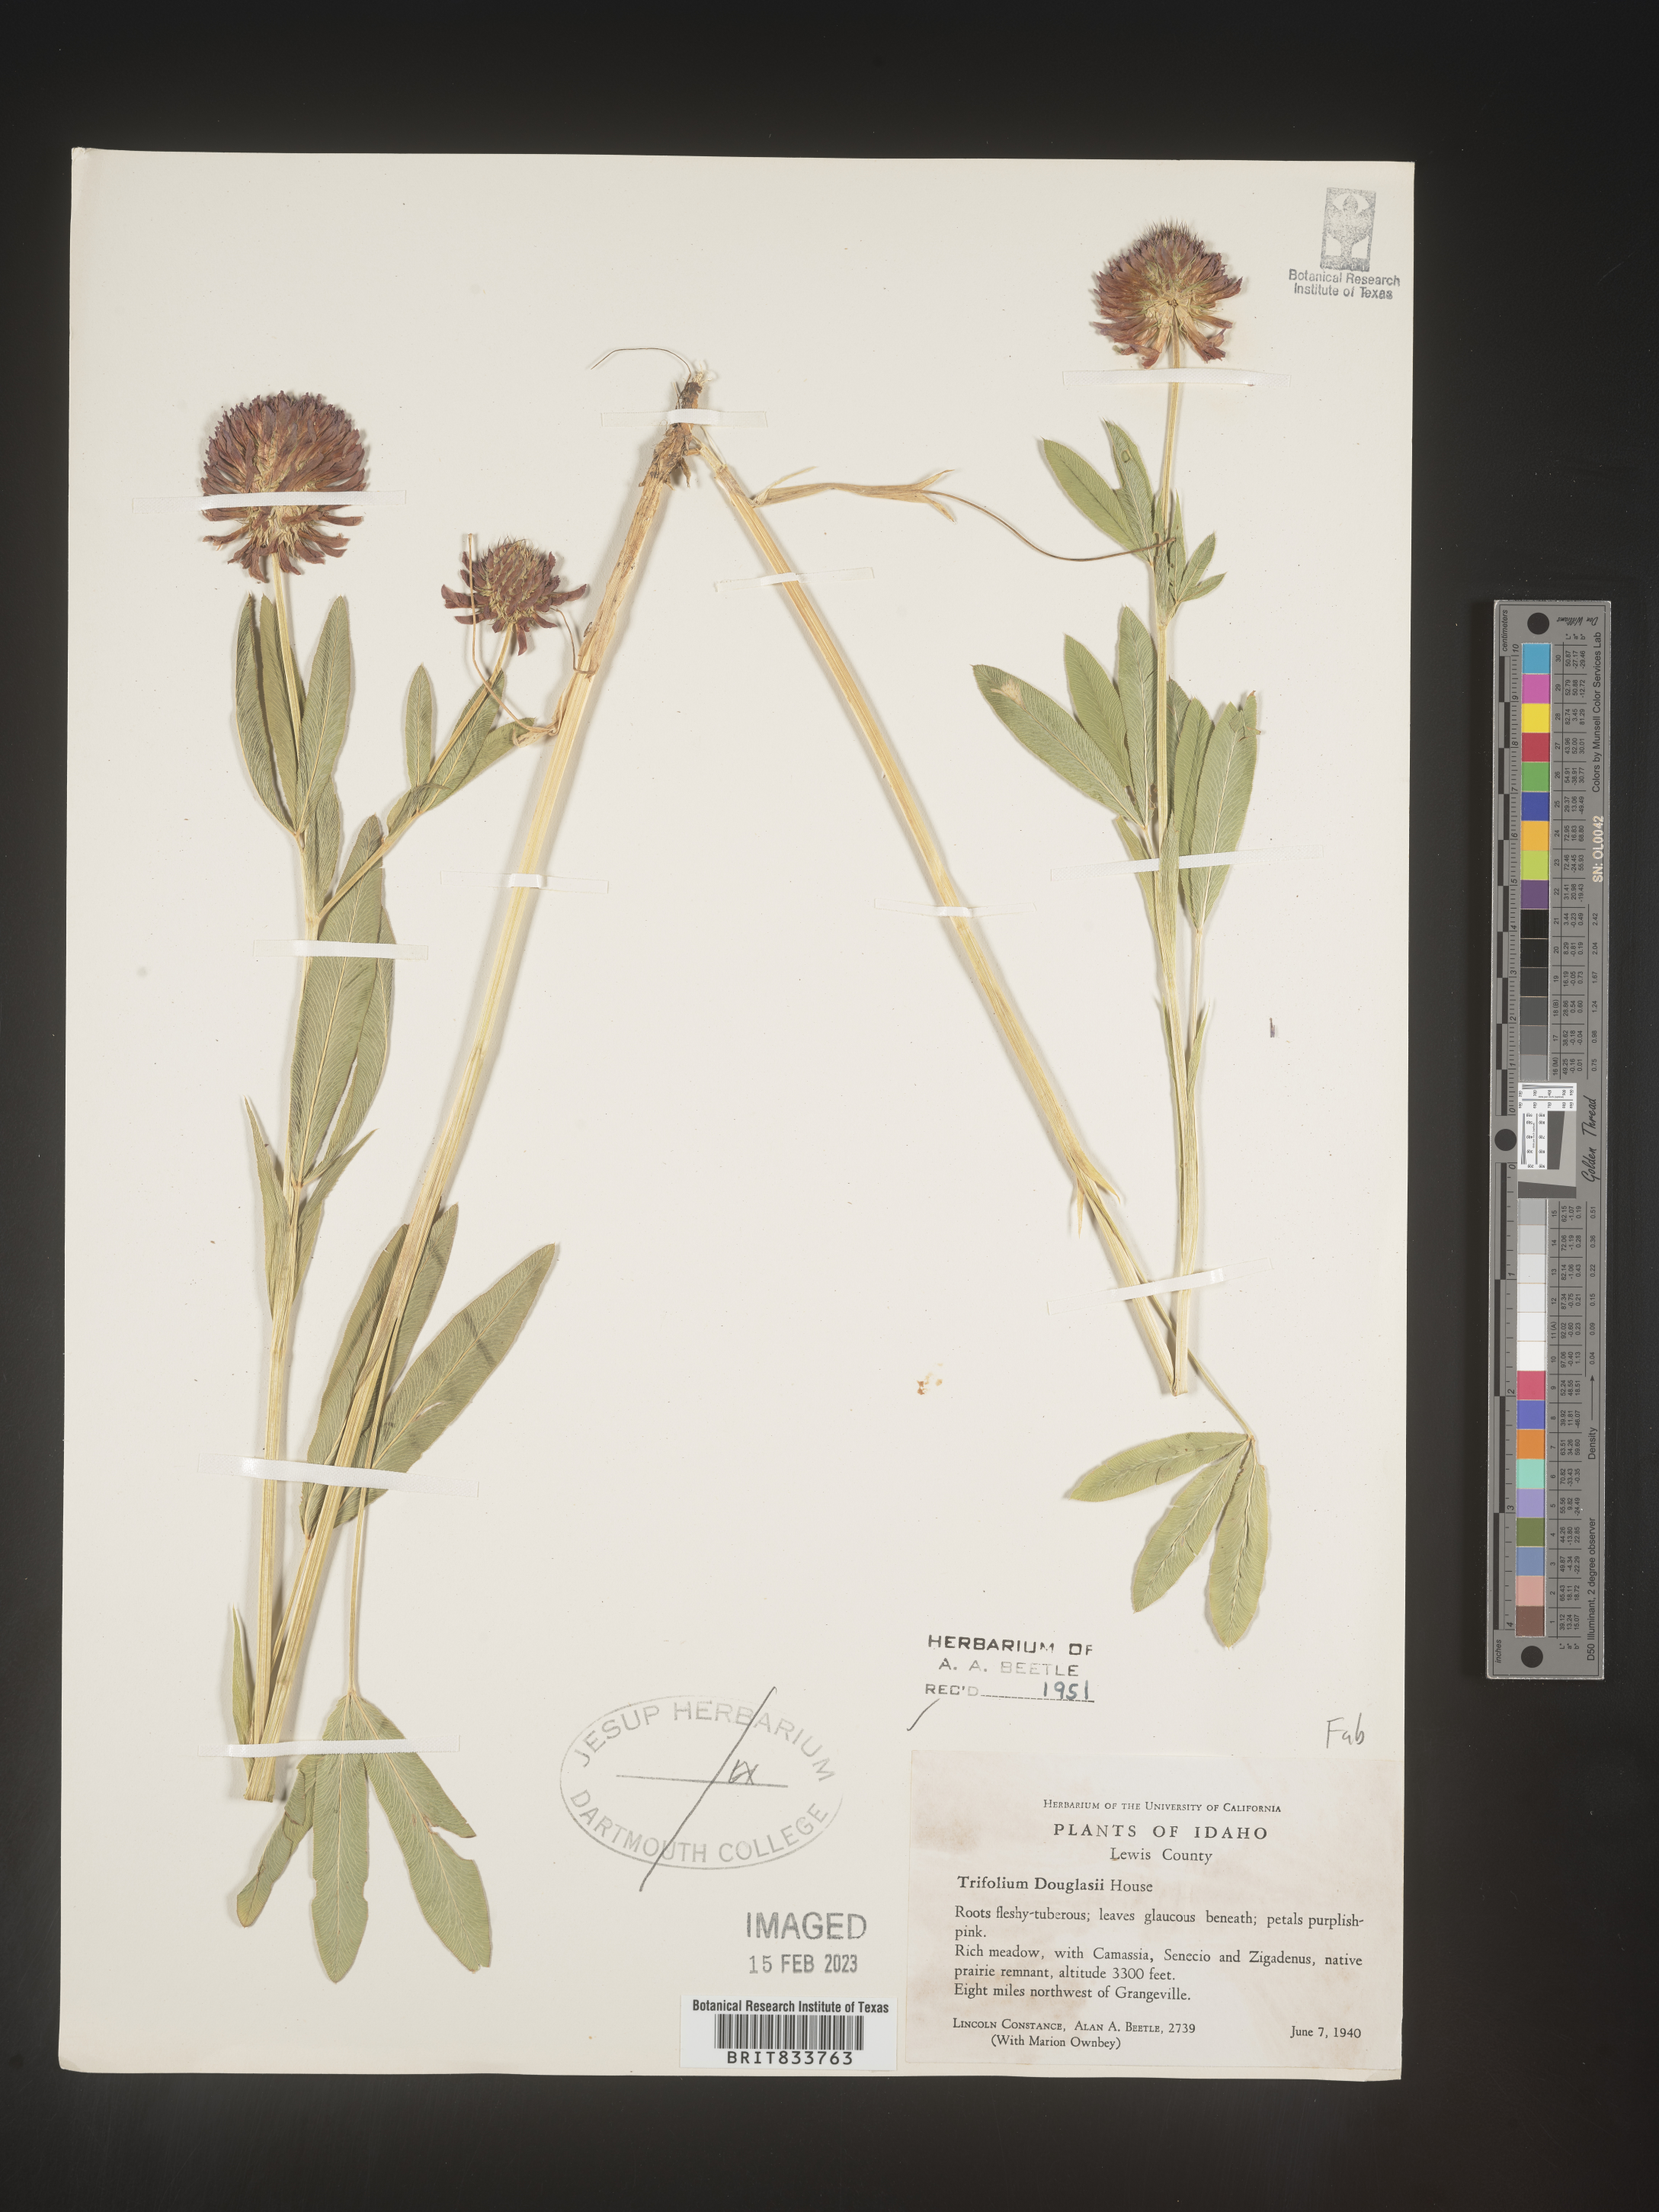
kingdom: Plantae
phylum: Tracheophyta
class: Magnoliopsida
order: Fabales
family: Fabaceae
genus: Trifolium
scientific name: Trifolium
